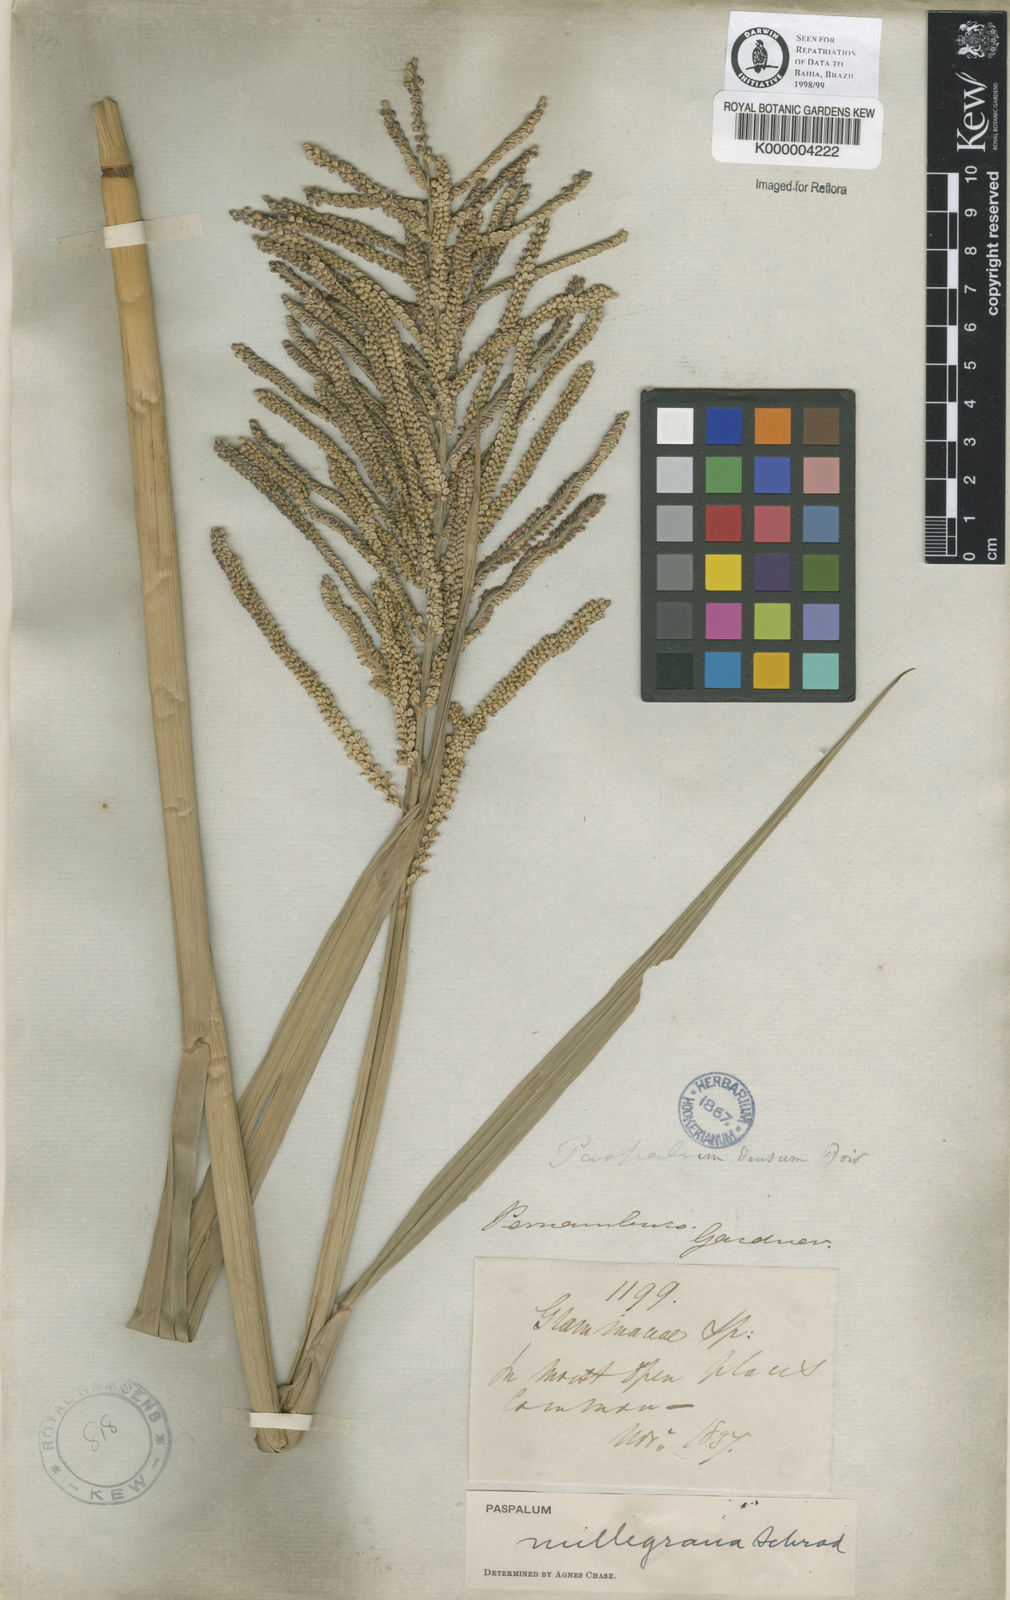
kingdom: Plantae
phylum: Tracheophyta
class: Liliopsida
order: Poales
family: Poaceae
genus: Paspalum
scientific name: Paspalum millegranum
